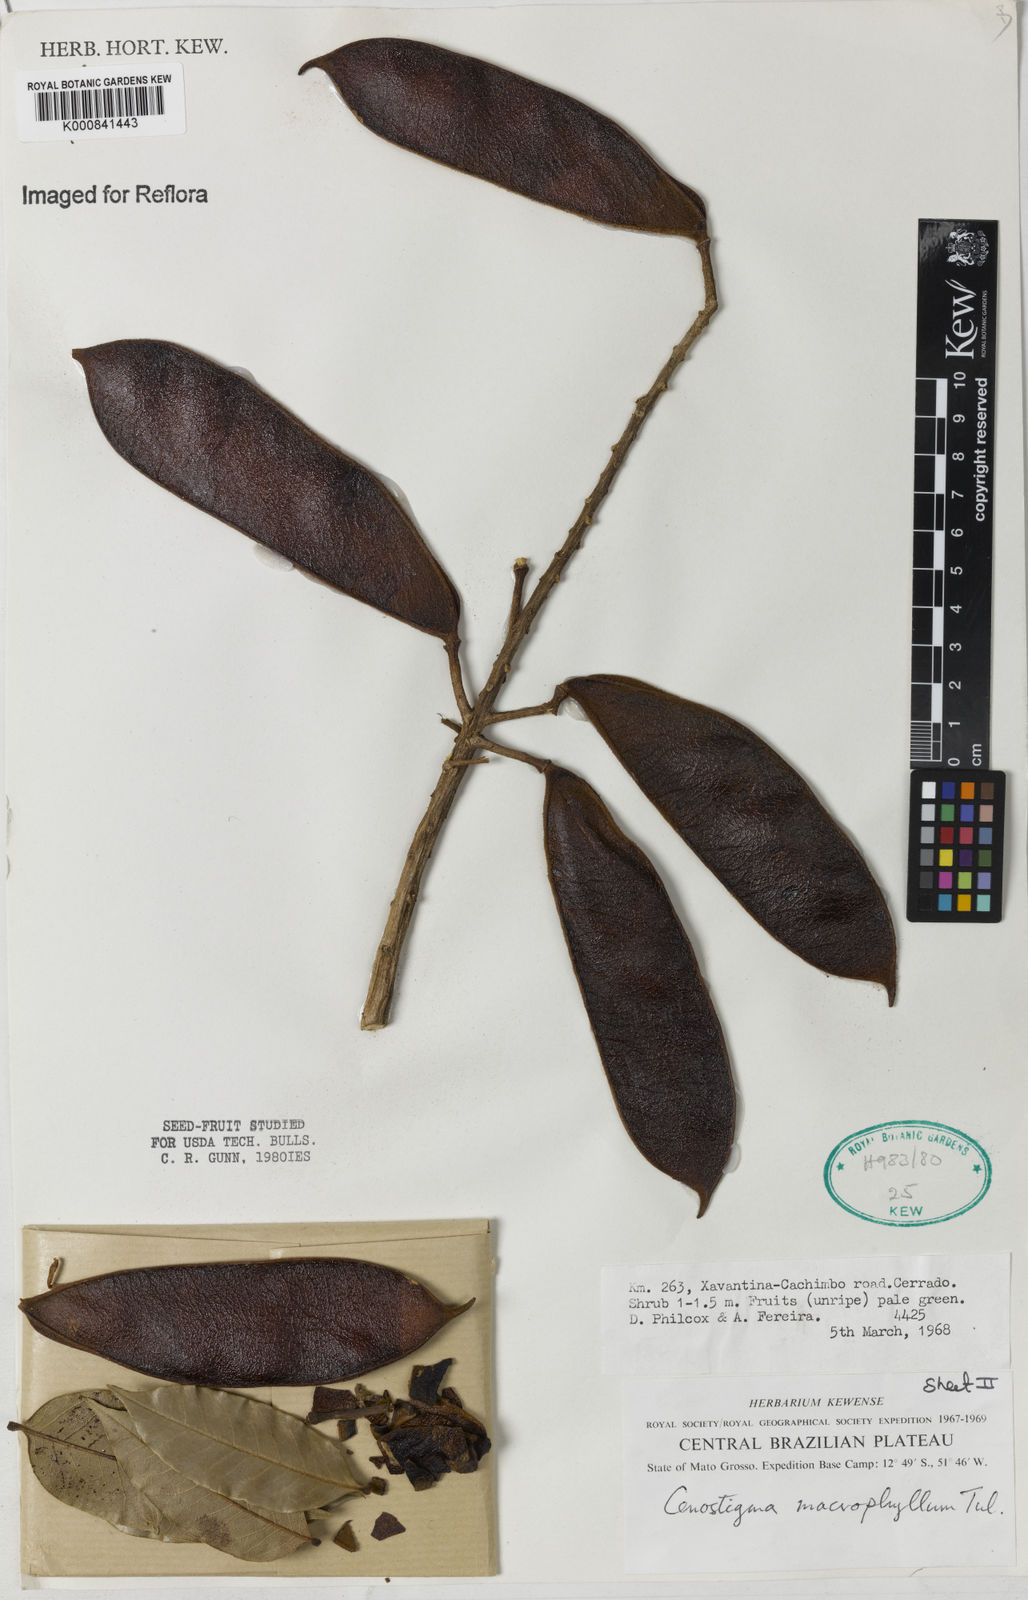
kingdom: Plantae
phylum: Tracheophyta
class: Magnoliopsida
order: Fabales
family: Fabaceae
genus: Cenostigma
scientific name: Cenostigma macrophyllum
